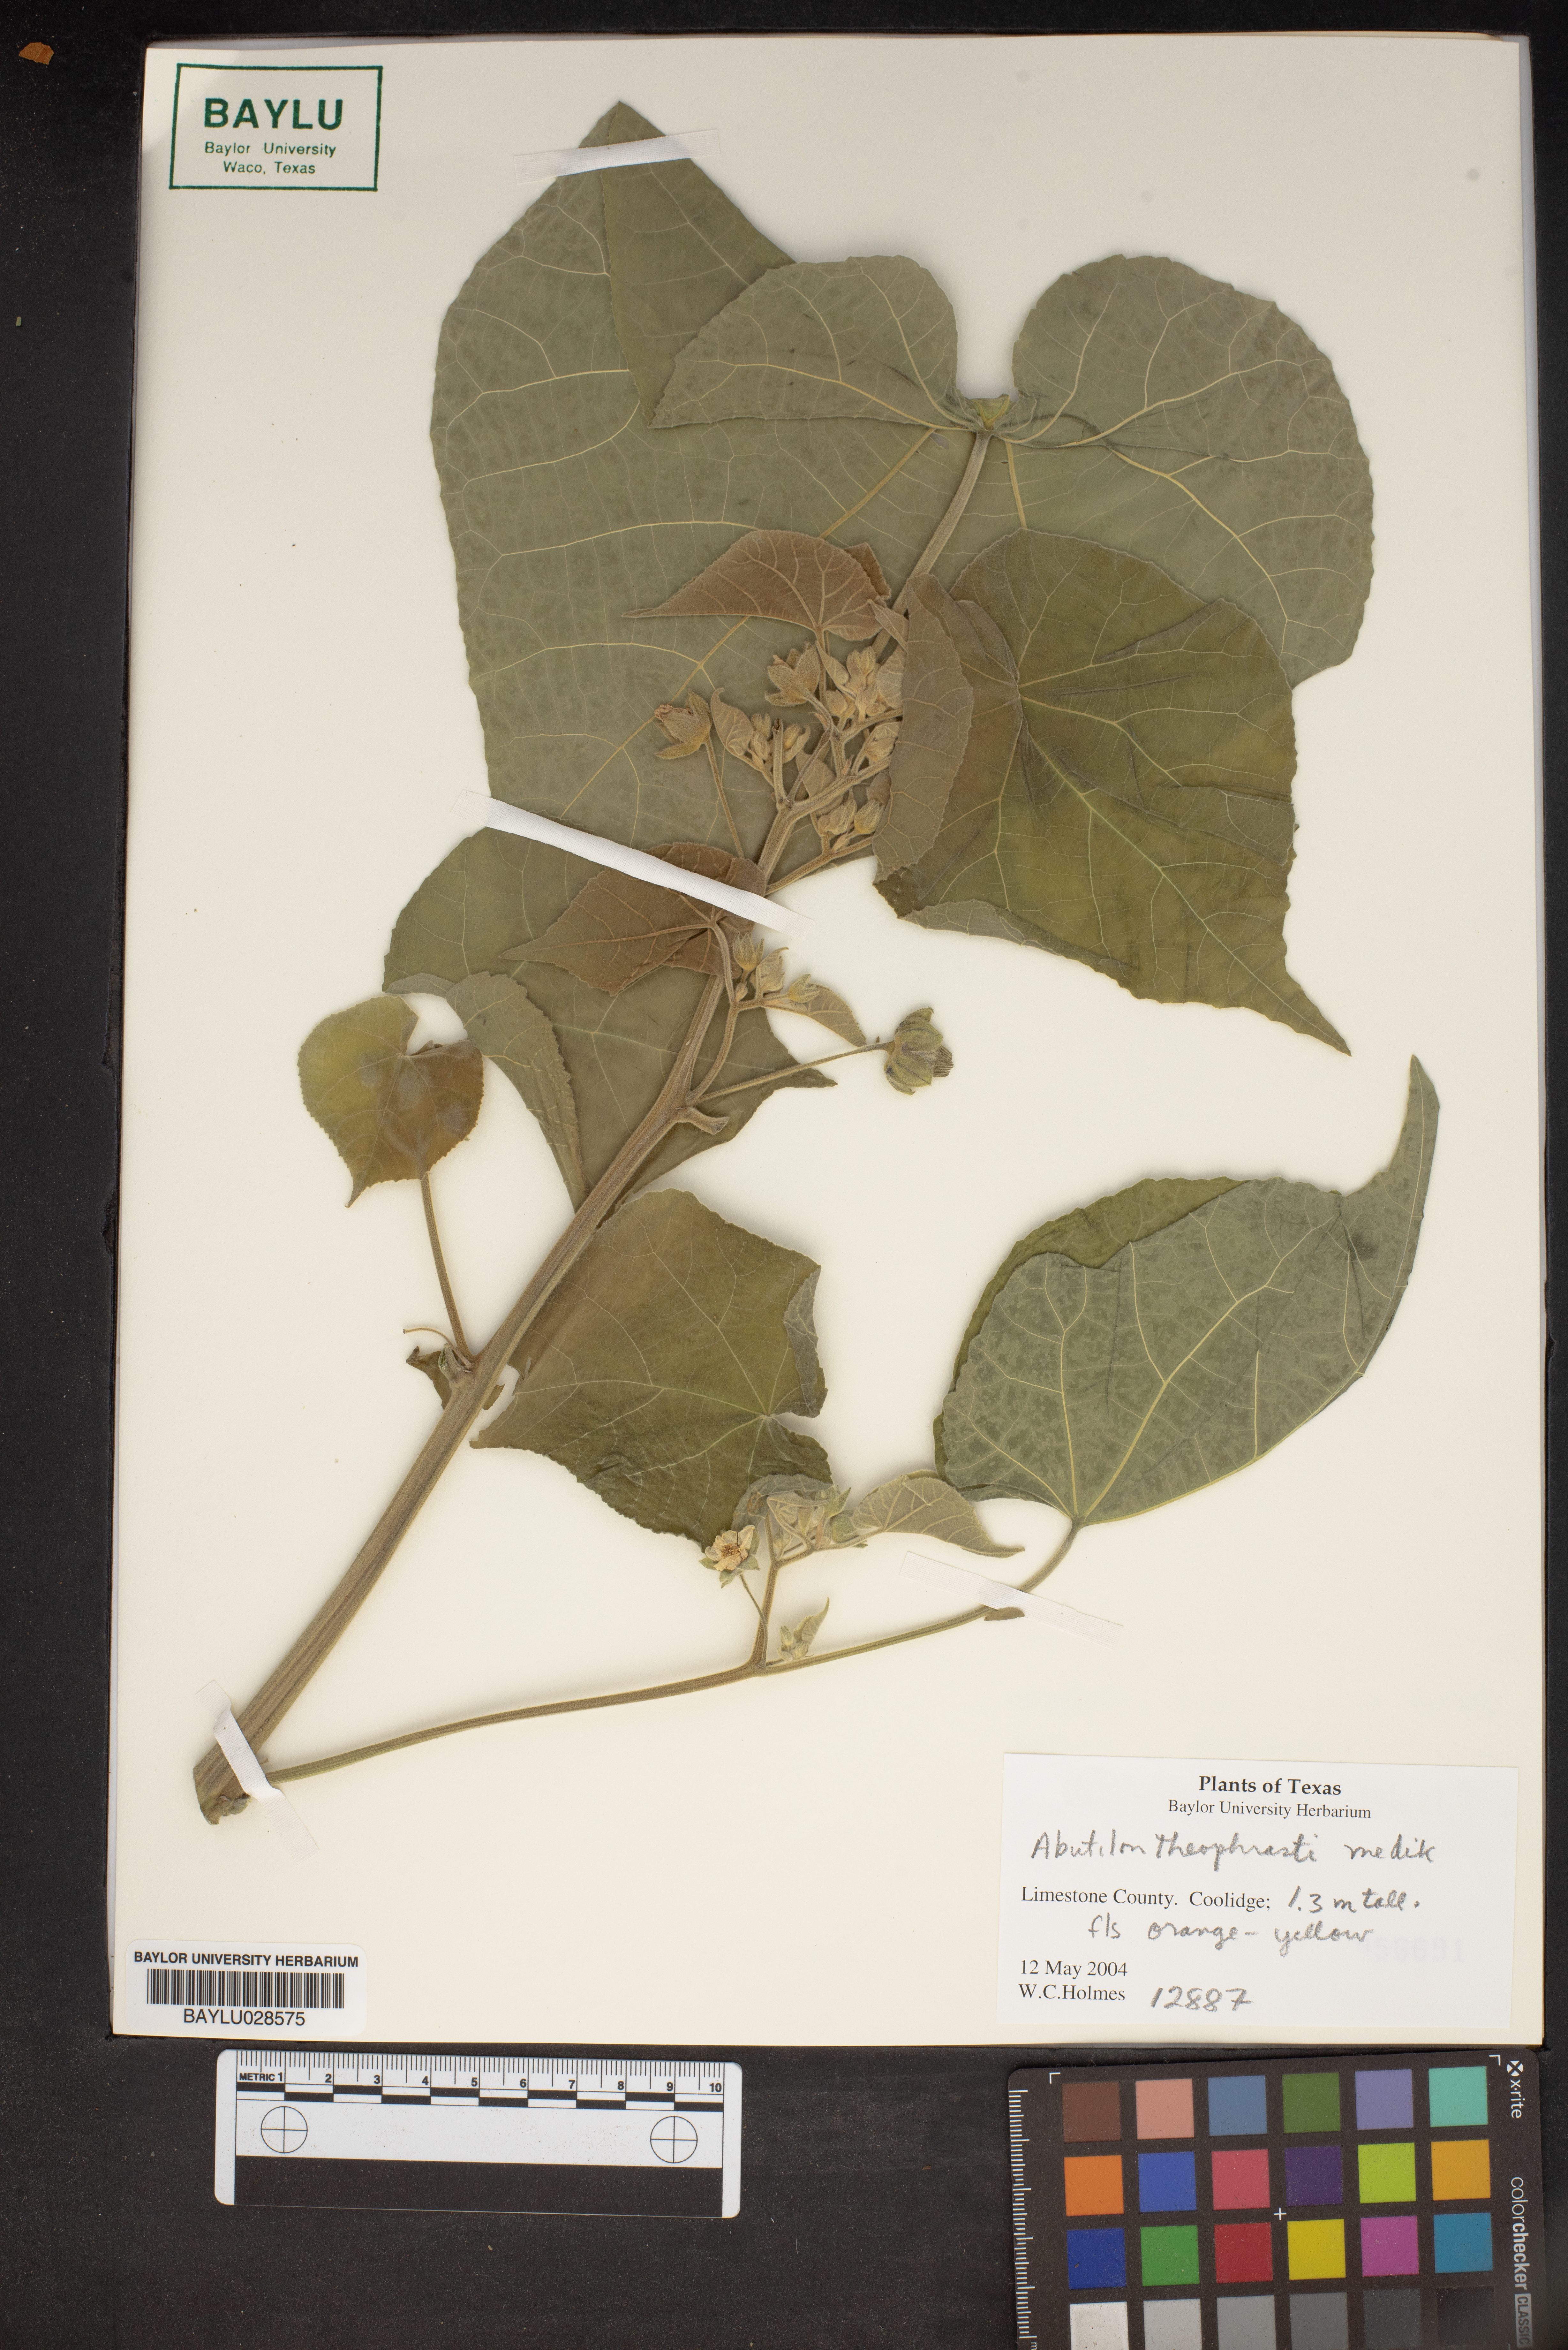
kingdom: Plantae
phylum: Tracheophyta
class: Magnoliopsida
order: Malvales
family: Malvaceae
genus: Abutilon
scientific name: Abutilon theophrasti
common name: Velvetleaf
